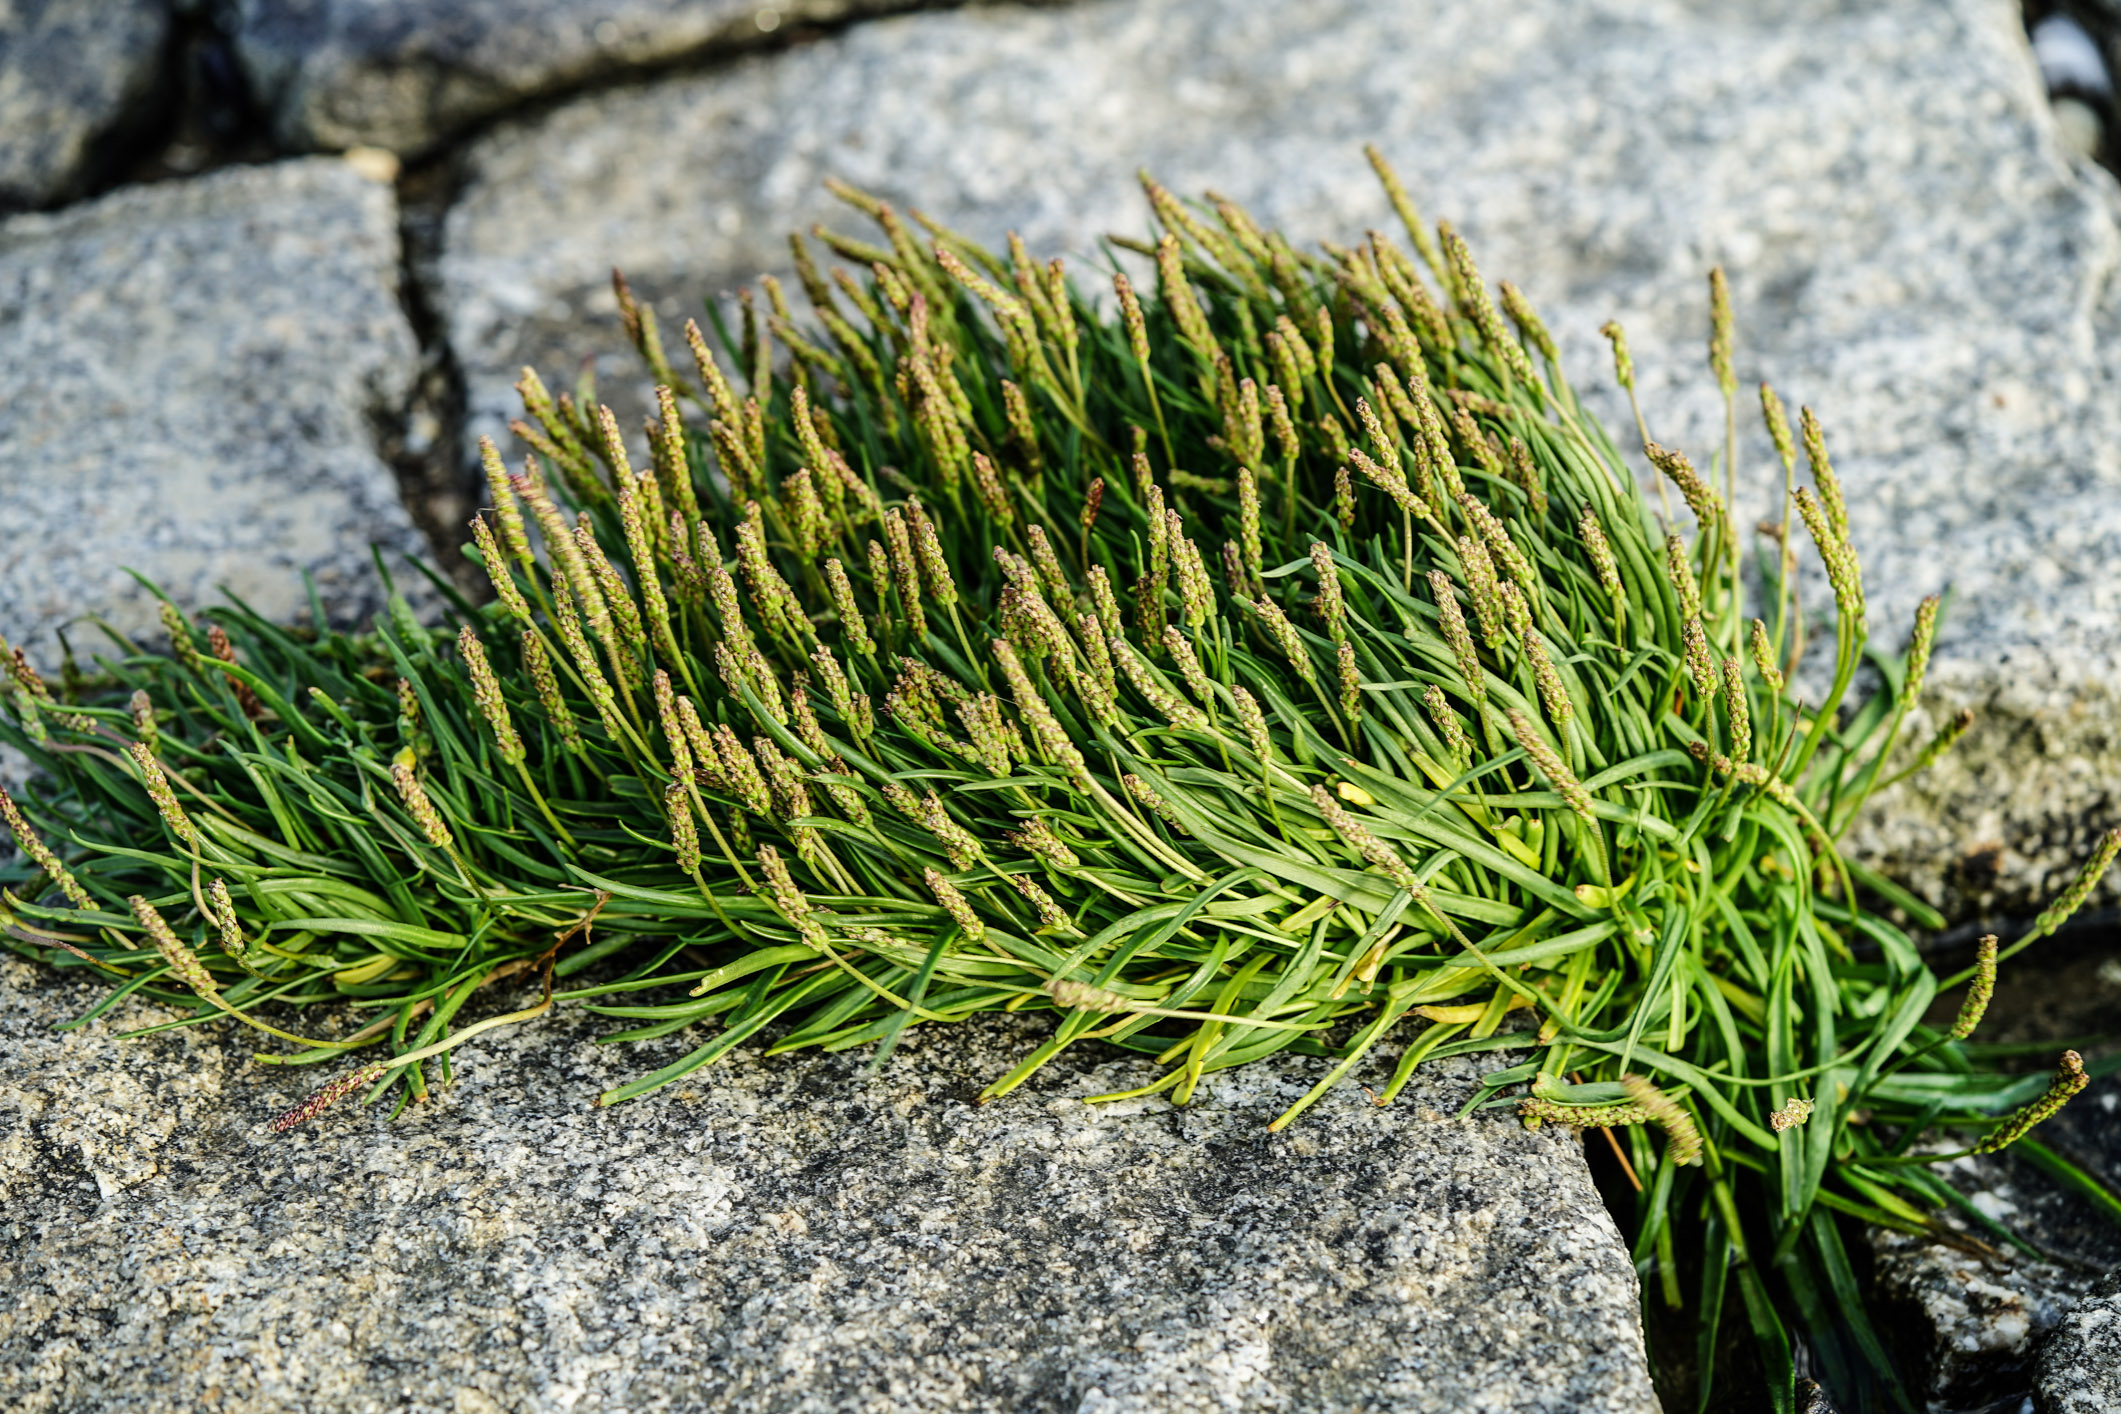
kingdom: Plantae
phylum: Tracheophyta
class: Magnoliopsida
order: Lamiales
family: Plantaginaceae
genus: Plantago
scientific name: Plantago maritima
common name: Sea plantain
